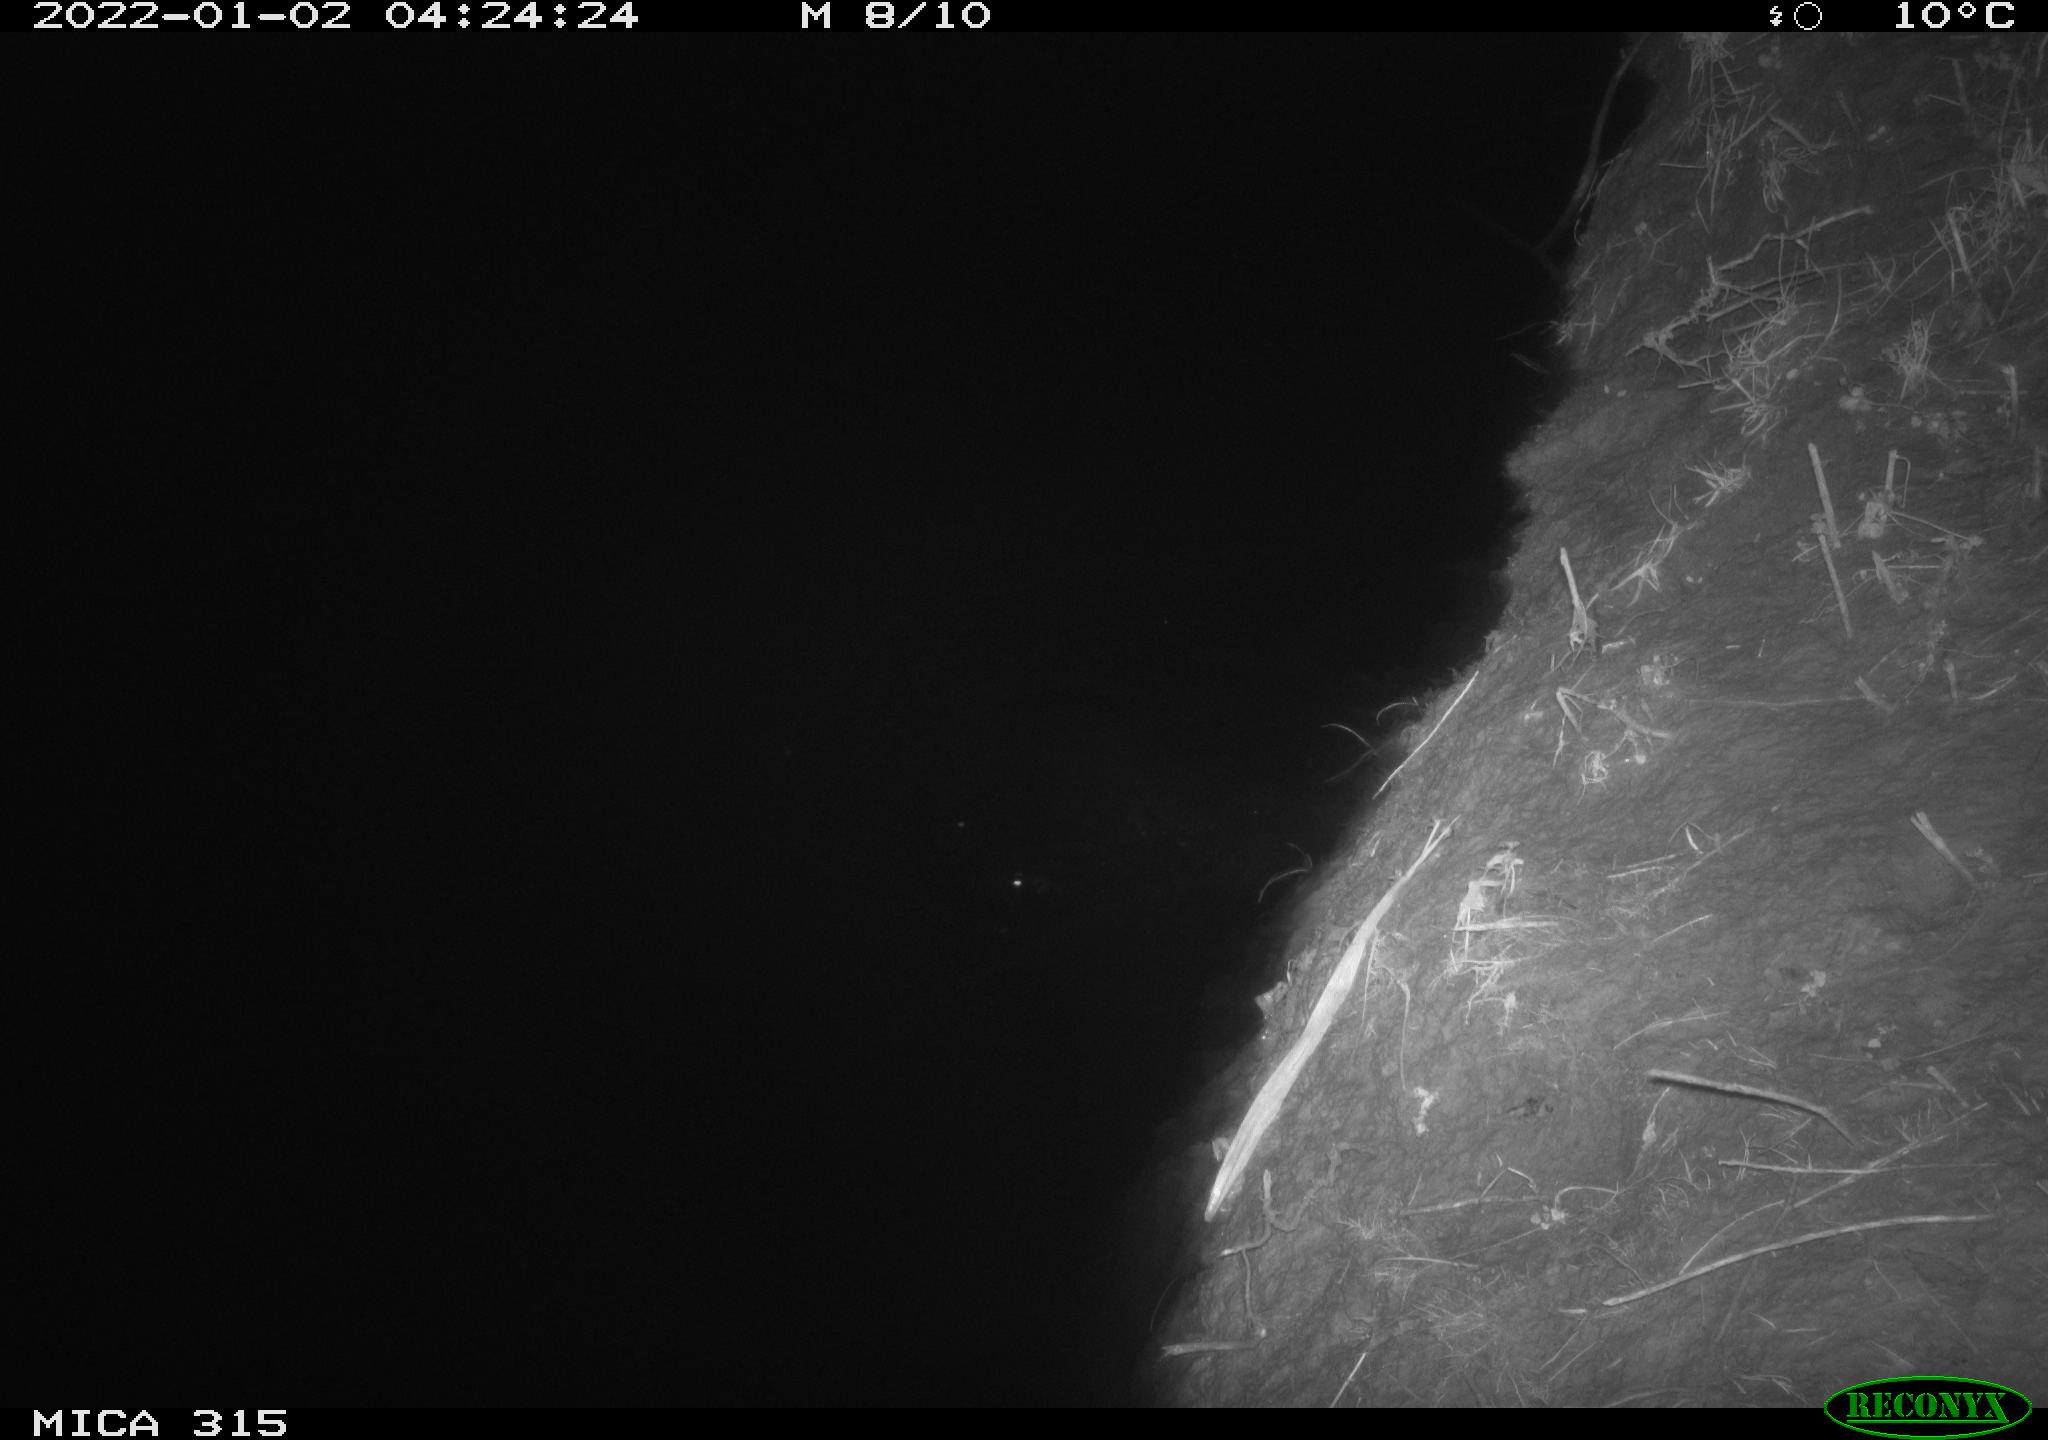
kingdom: Animalia
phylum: Chordata
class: Mammalia
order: Rodentia
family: Muridae
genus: Rattus
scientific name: Rattus norvegicus
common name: Brown rat
